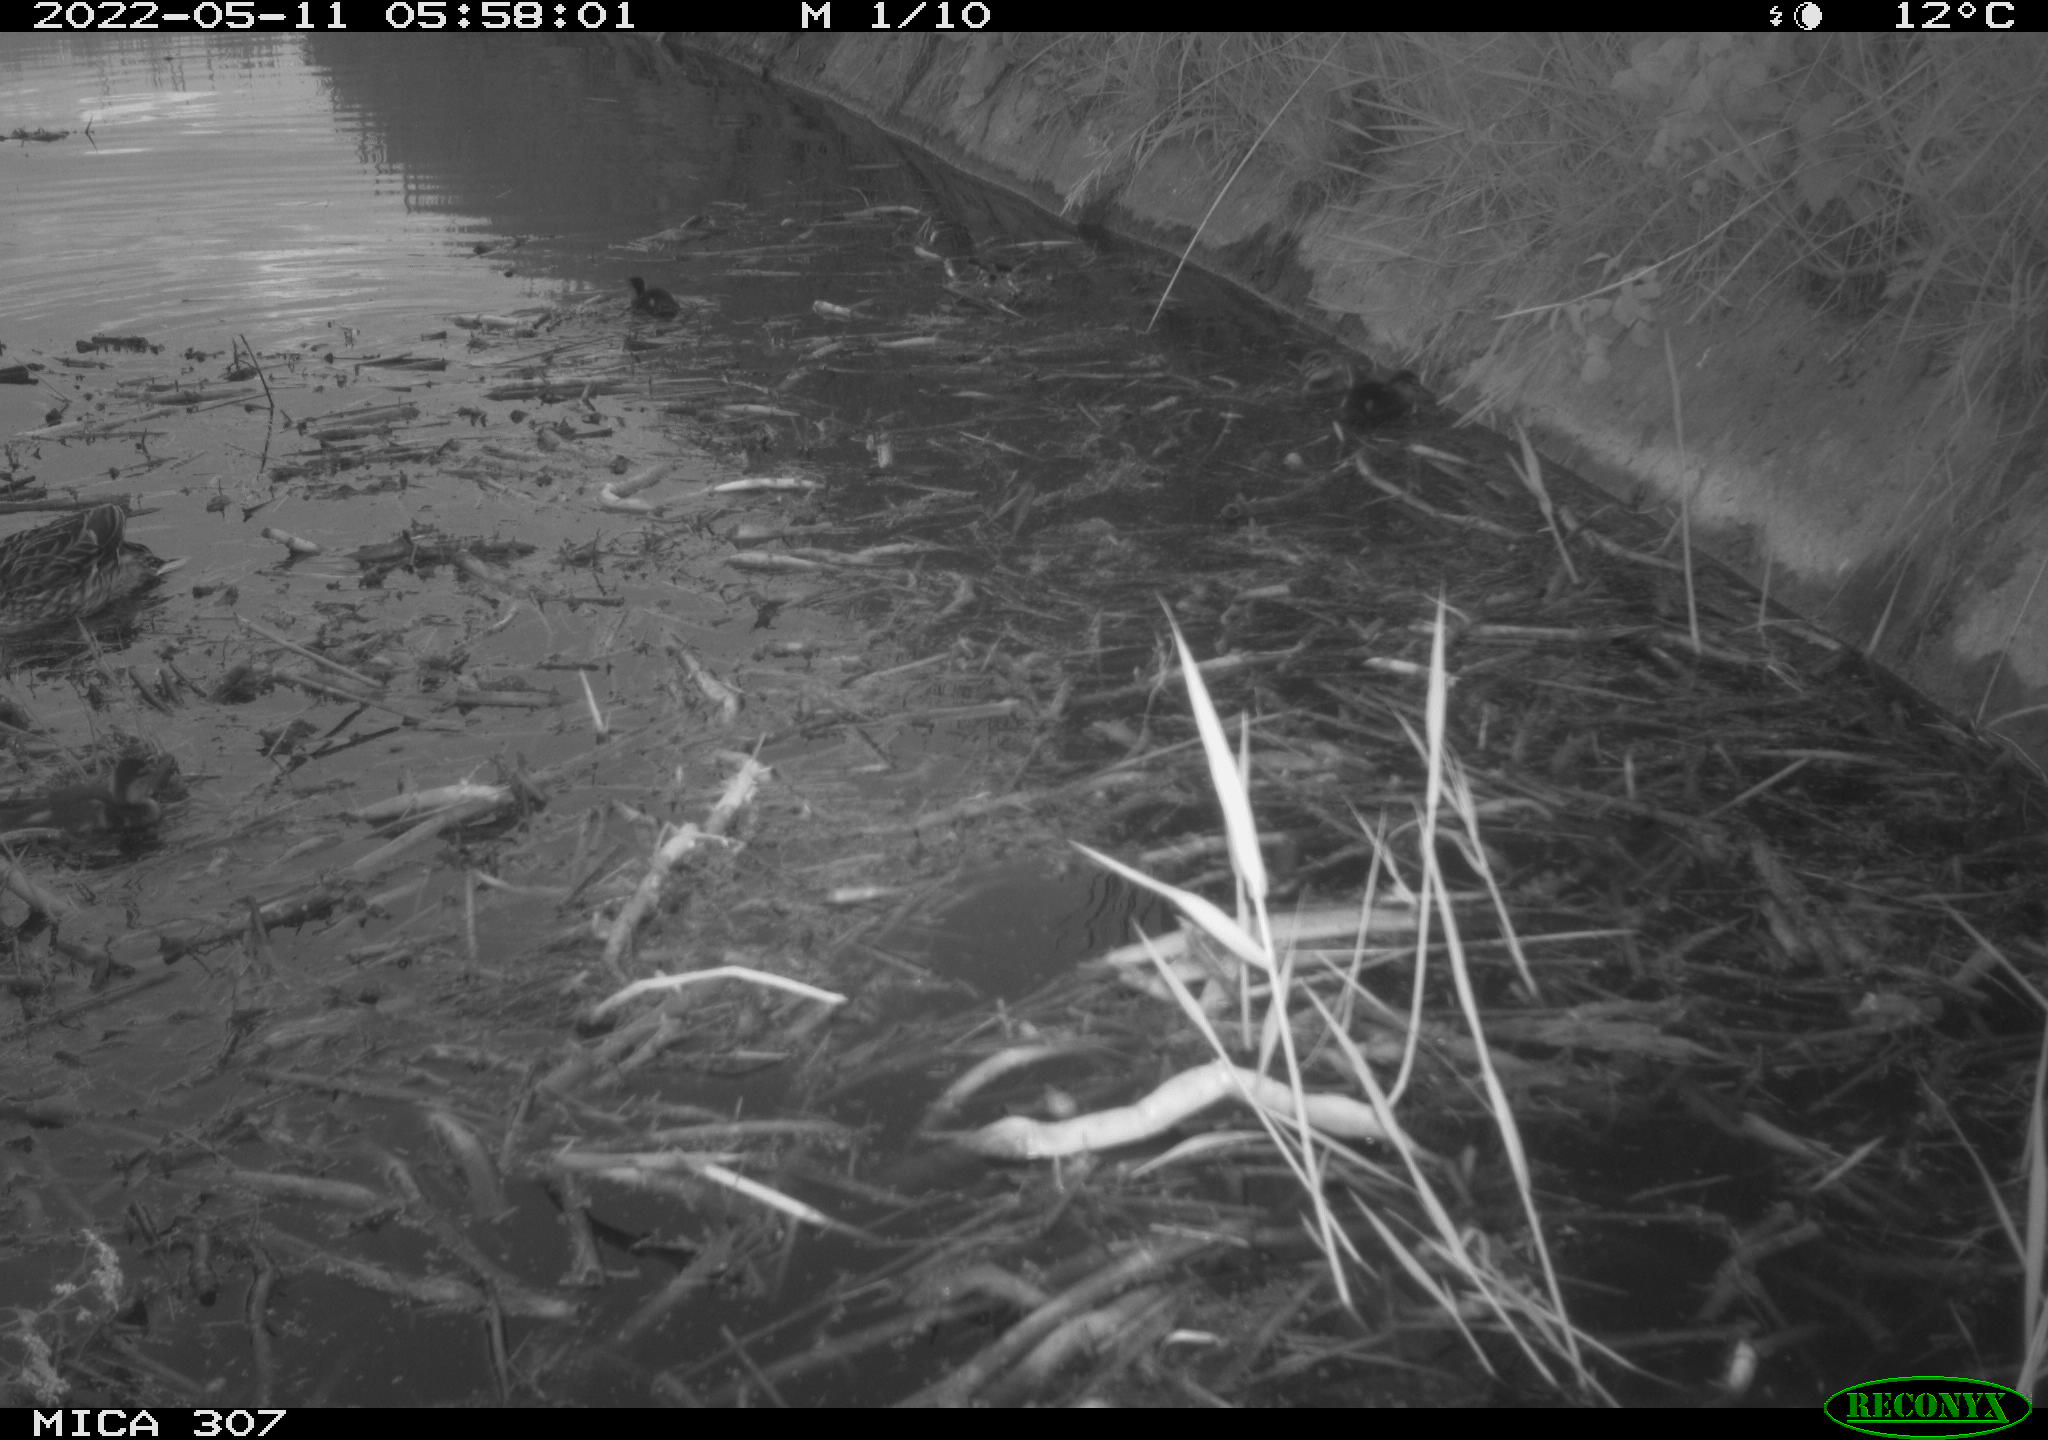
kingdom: Animalia
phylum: Chordata
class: Aves
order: Anseriformes
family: Anatidae
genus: Anas
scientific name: Anas platyrhynchos
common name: Mallard
